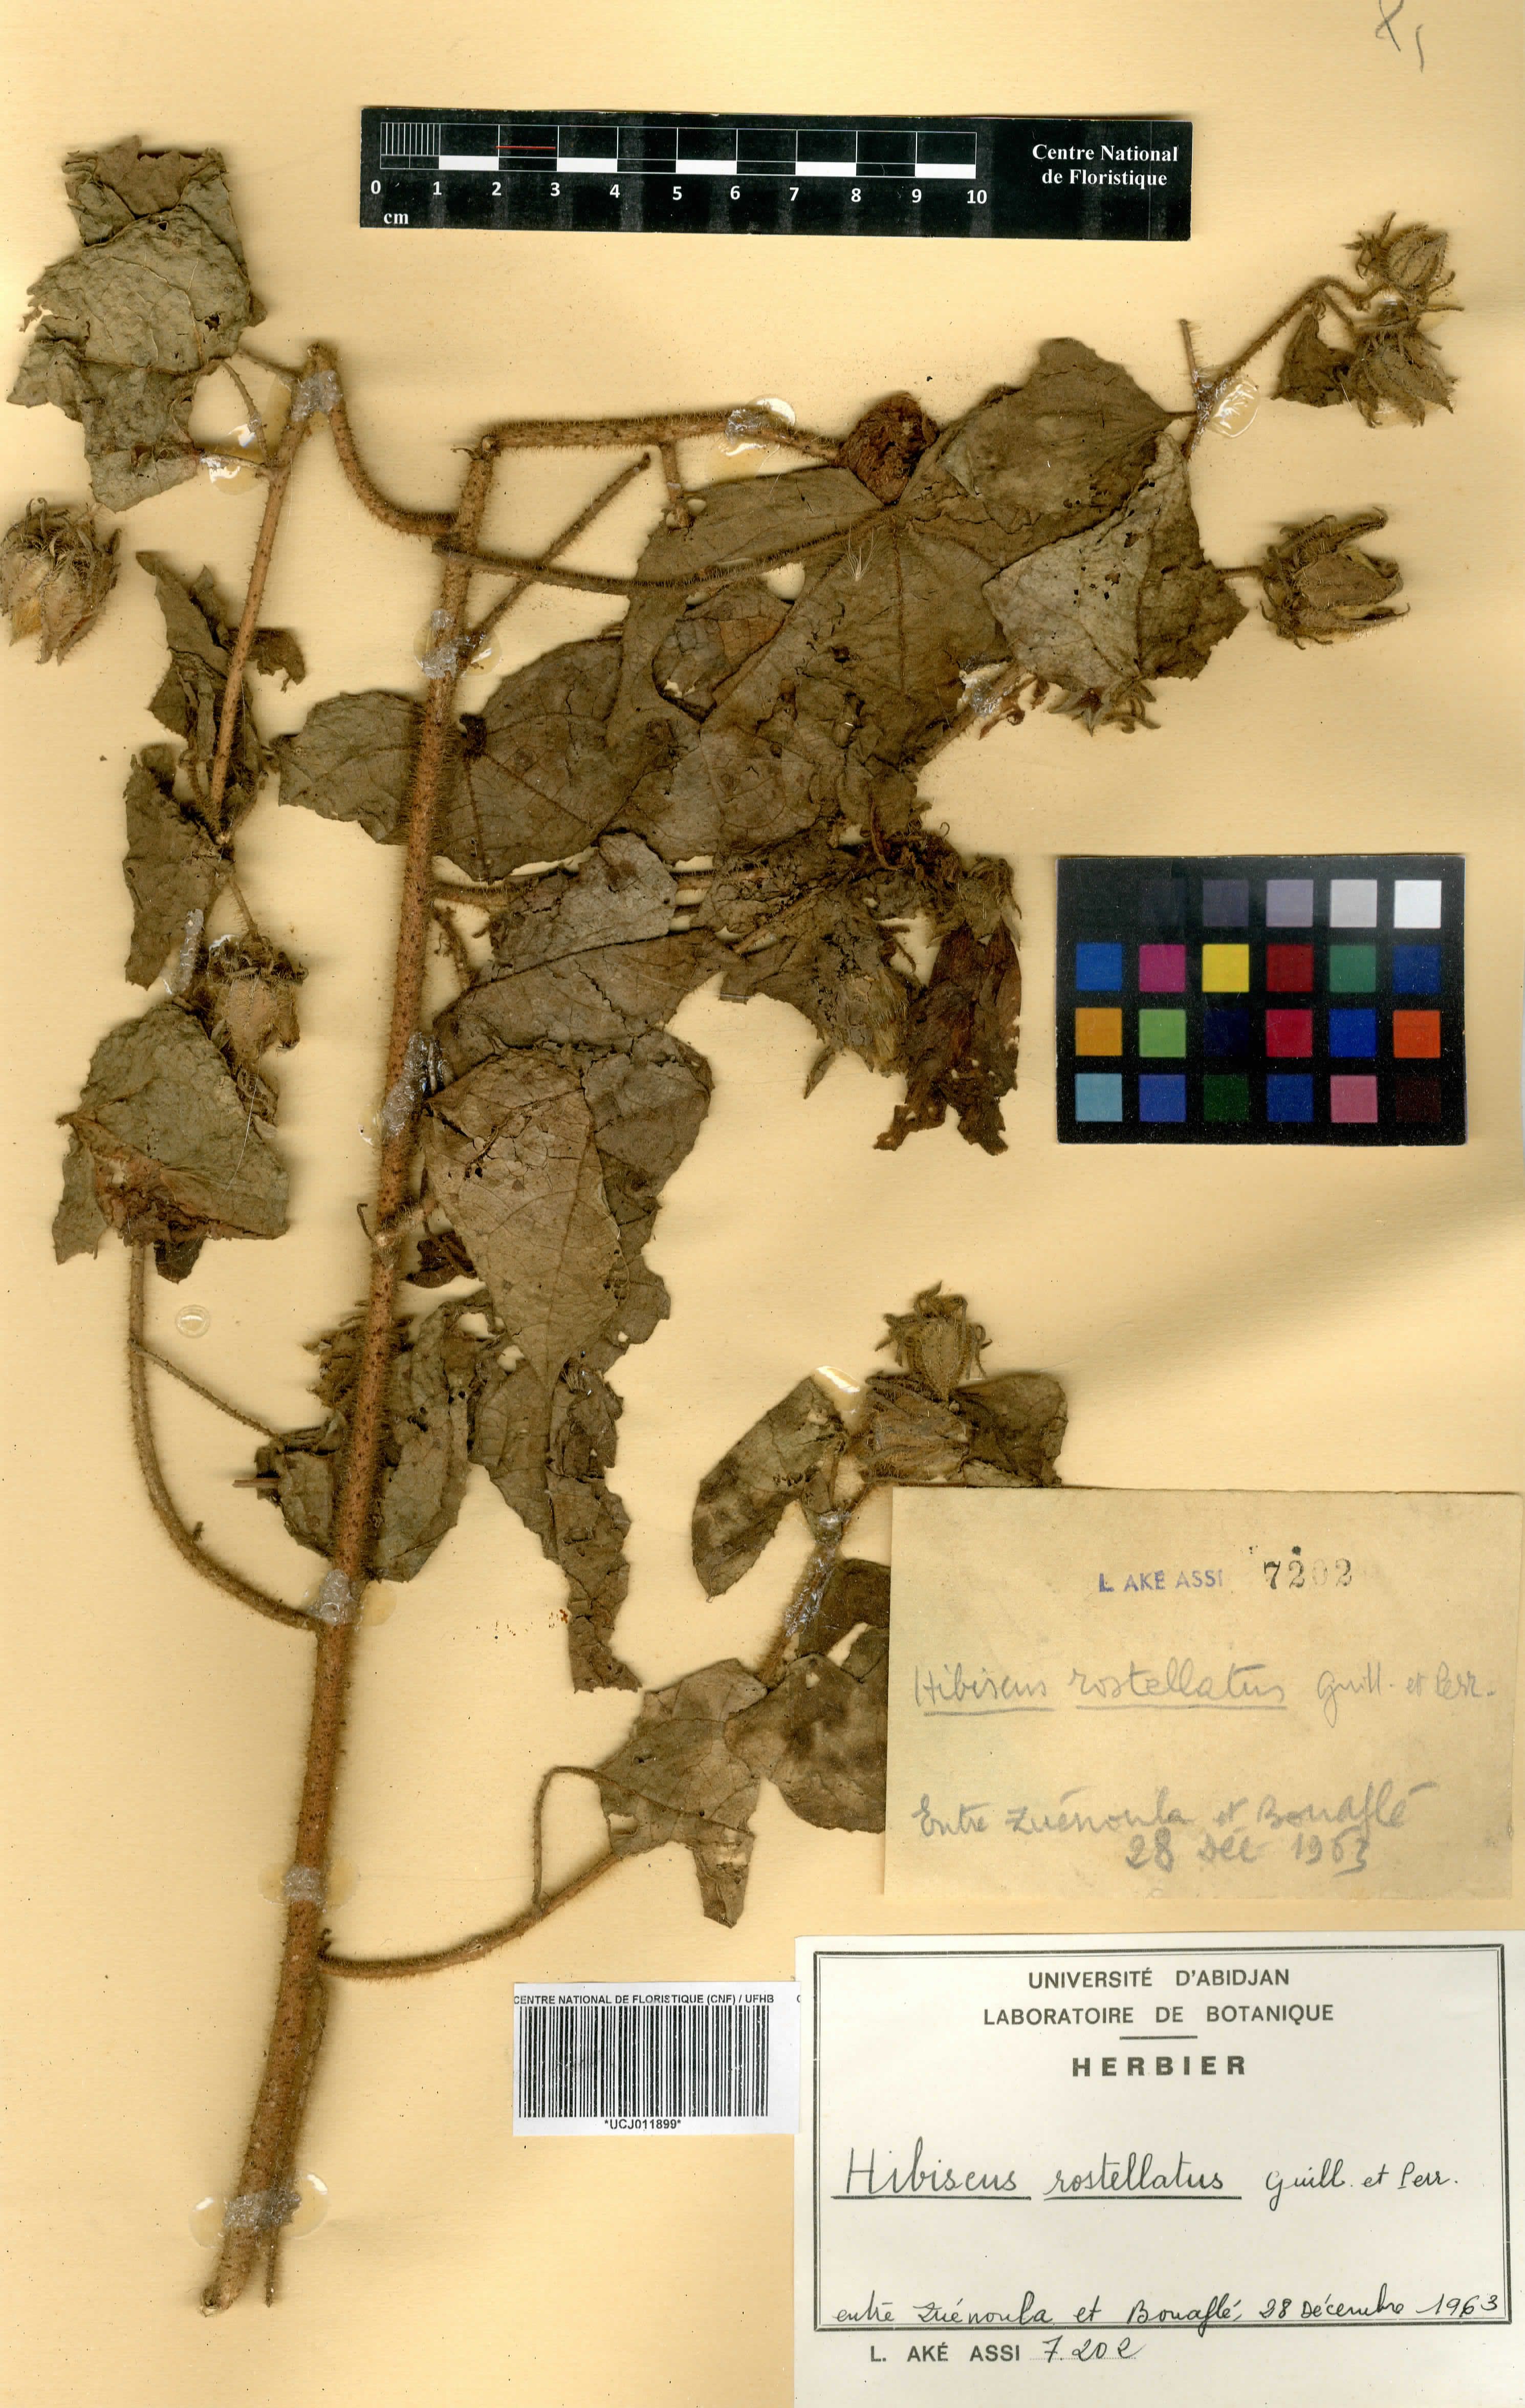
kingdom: Plantae
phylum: Tracheophyta
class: Magnoliopsida
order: Malvales
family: Malvaceae
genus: Hibiscus
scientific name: Hibiscus rostellatus
